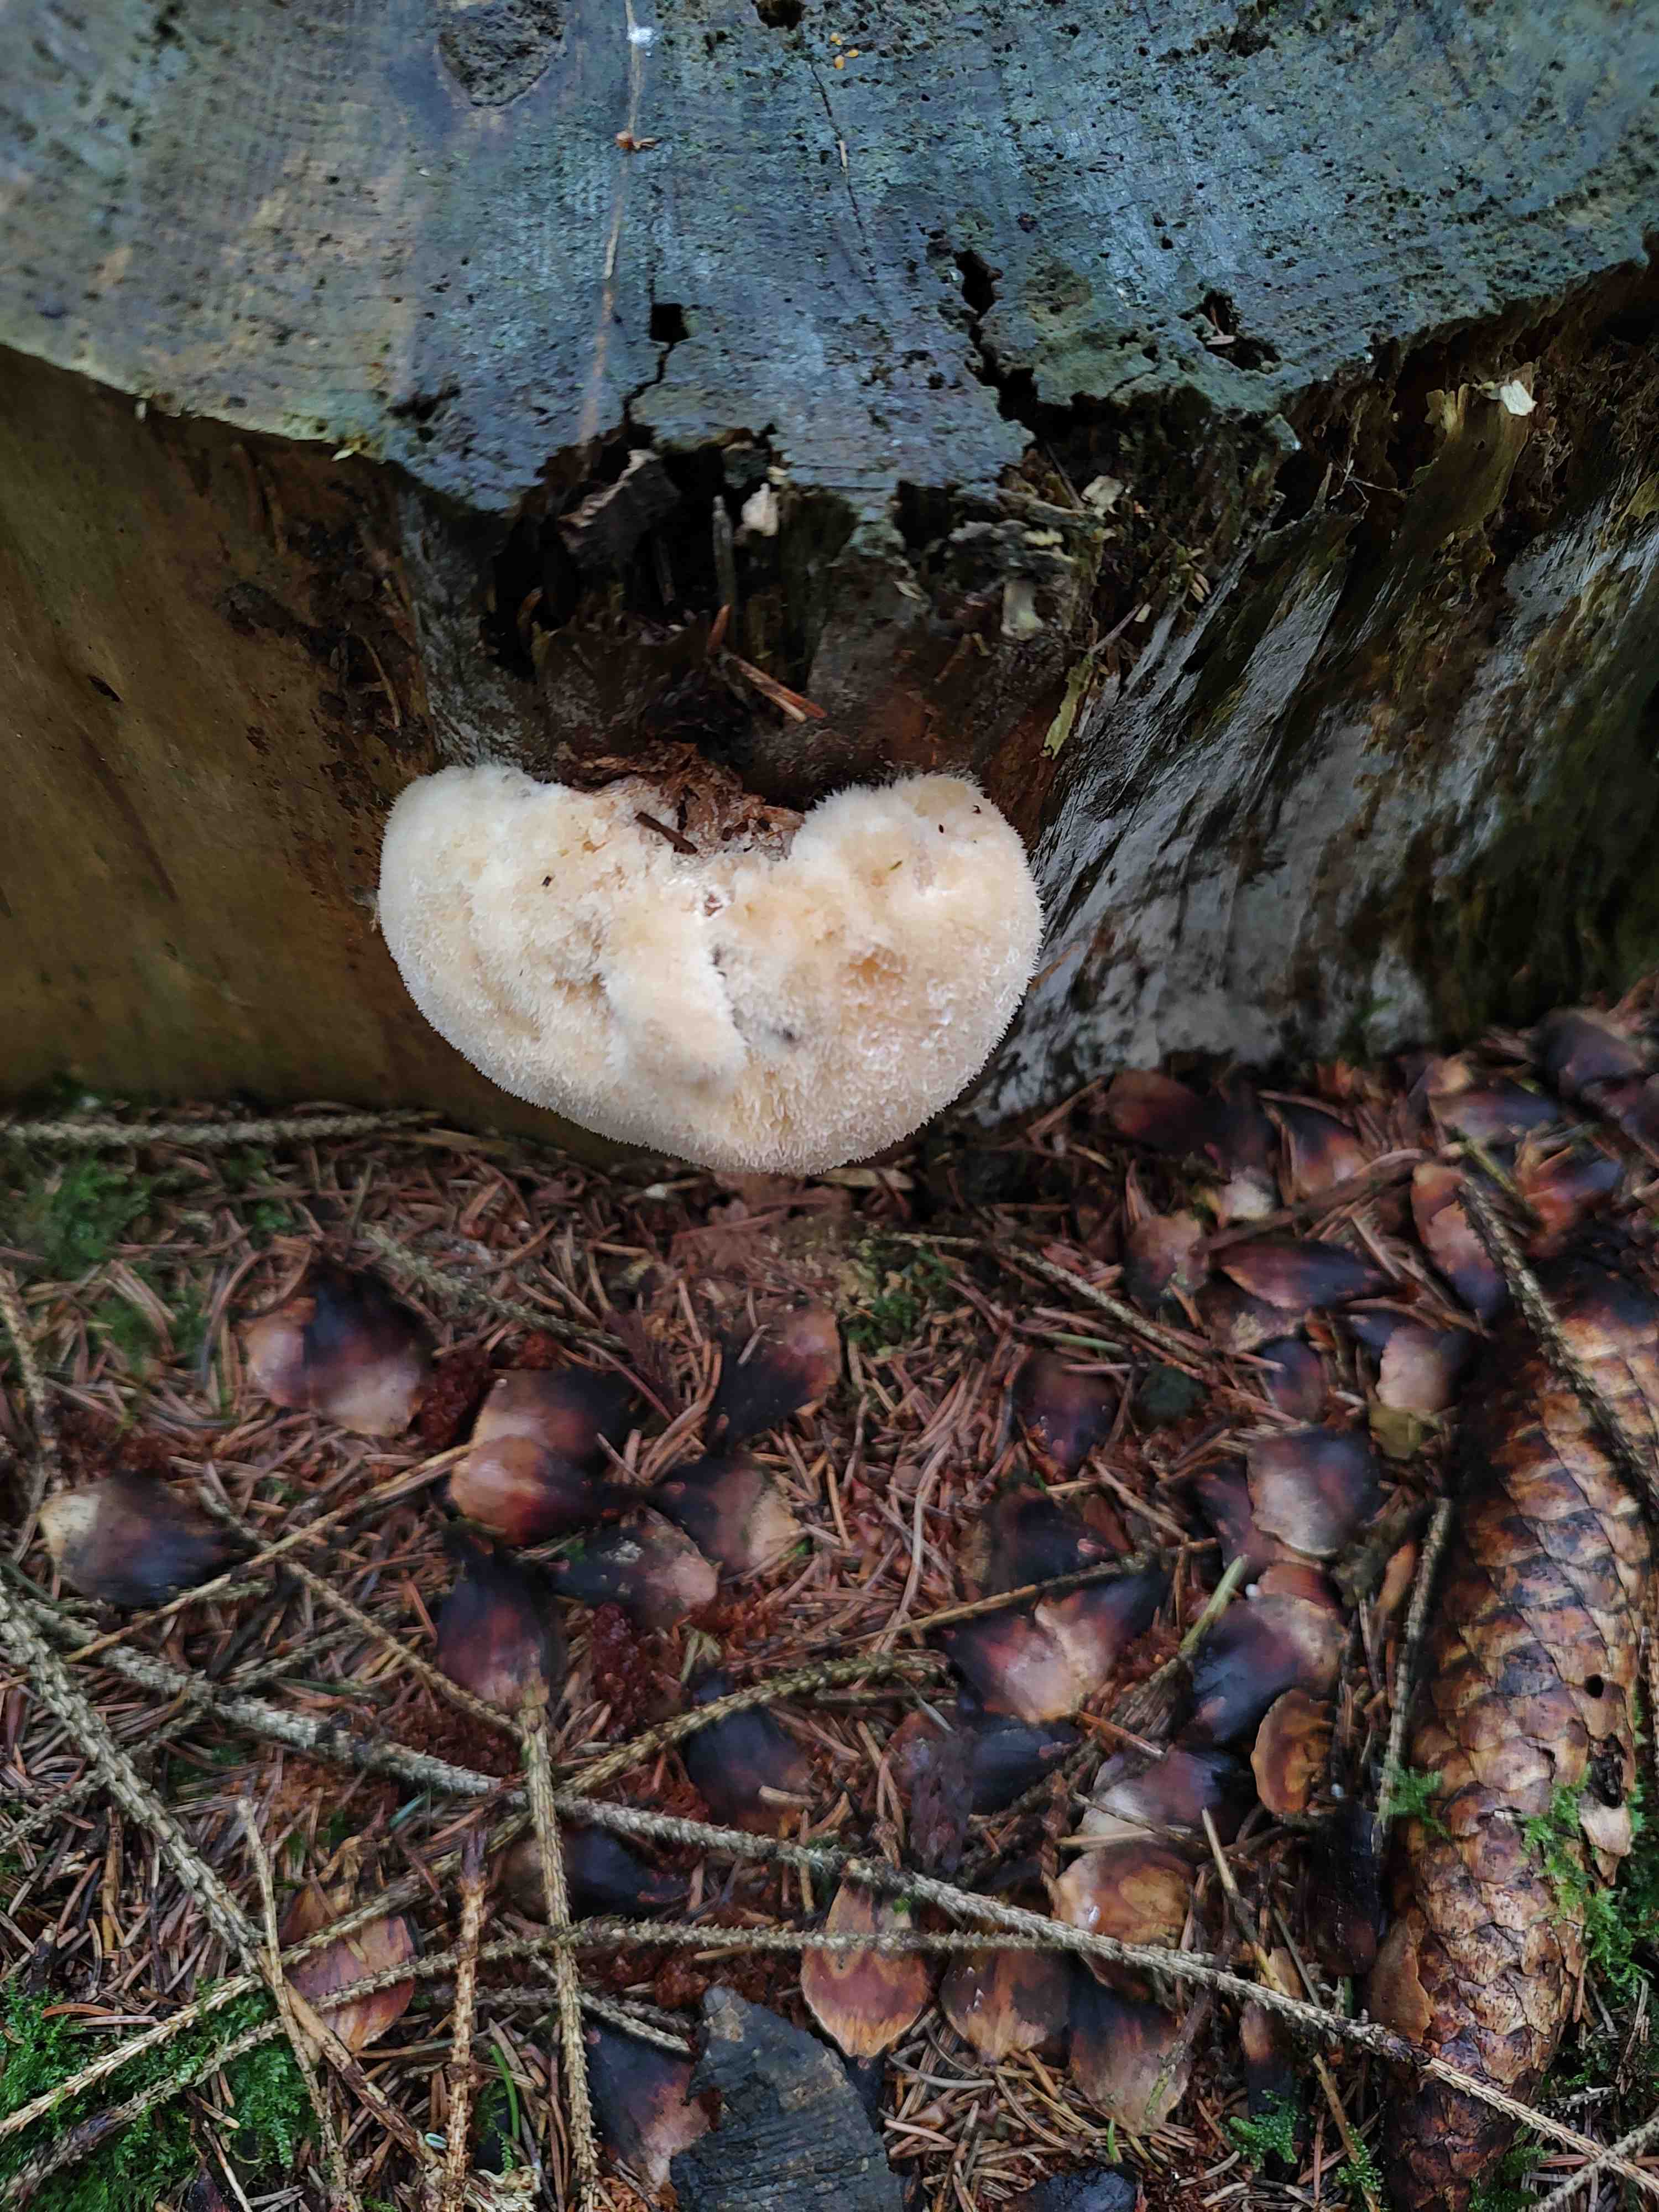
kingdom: Fungi
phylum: Basidiomycota
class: Agaricomycetes
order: Polyporales
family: Dacryobolaceae
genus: Postia
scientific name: Postia ptychogaster
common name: støvende kødporesvamp
